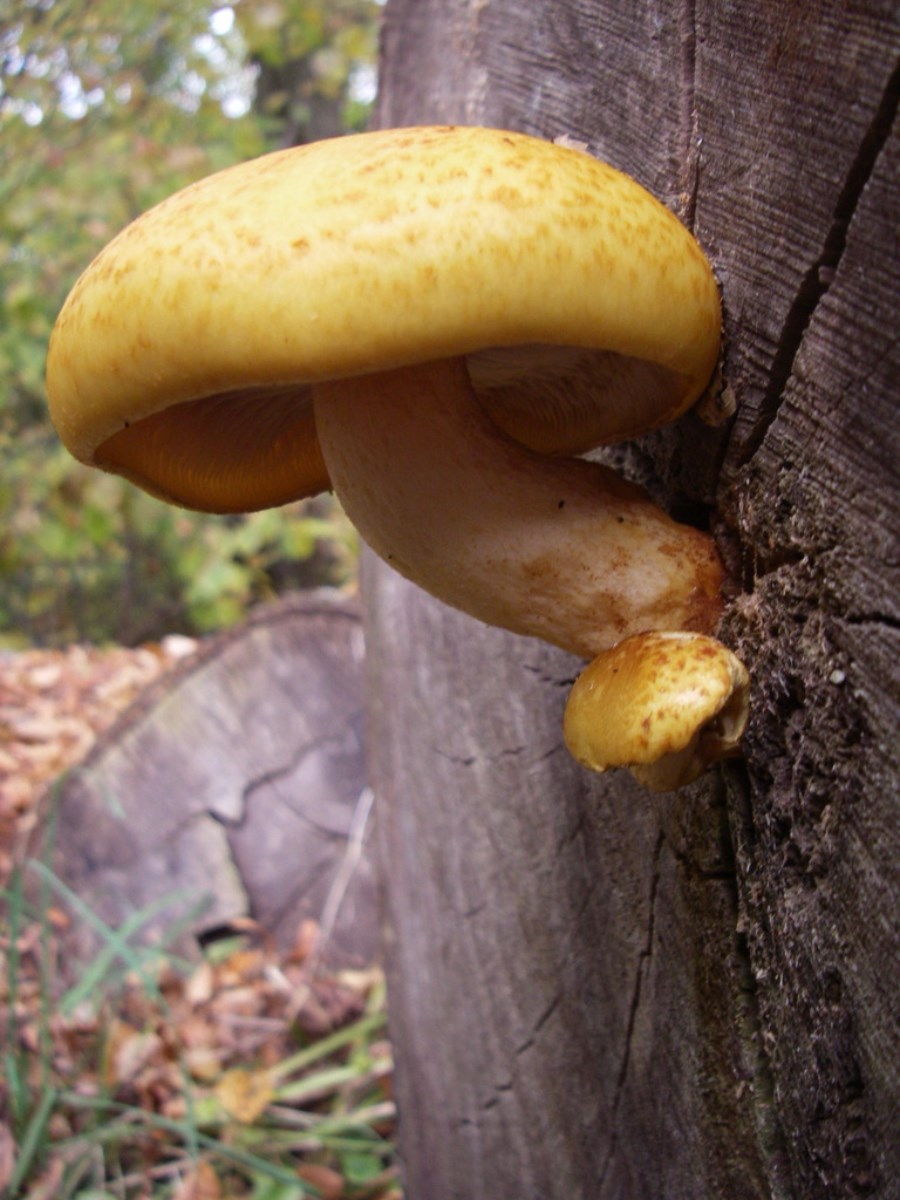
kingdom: Fungi
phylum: Basidiomycota
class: Agaricomycetes
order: Agaricales
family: Strophariaceae
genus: Pholiota
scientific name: Pholiota adiposa
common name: højtsiddende skælhat
